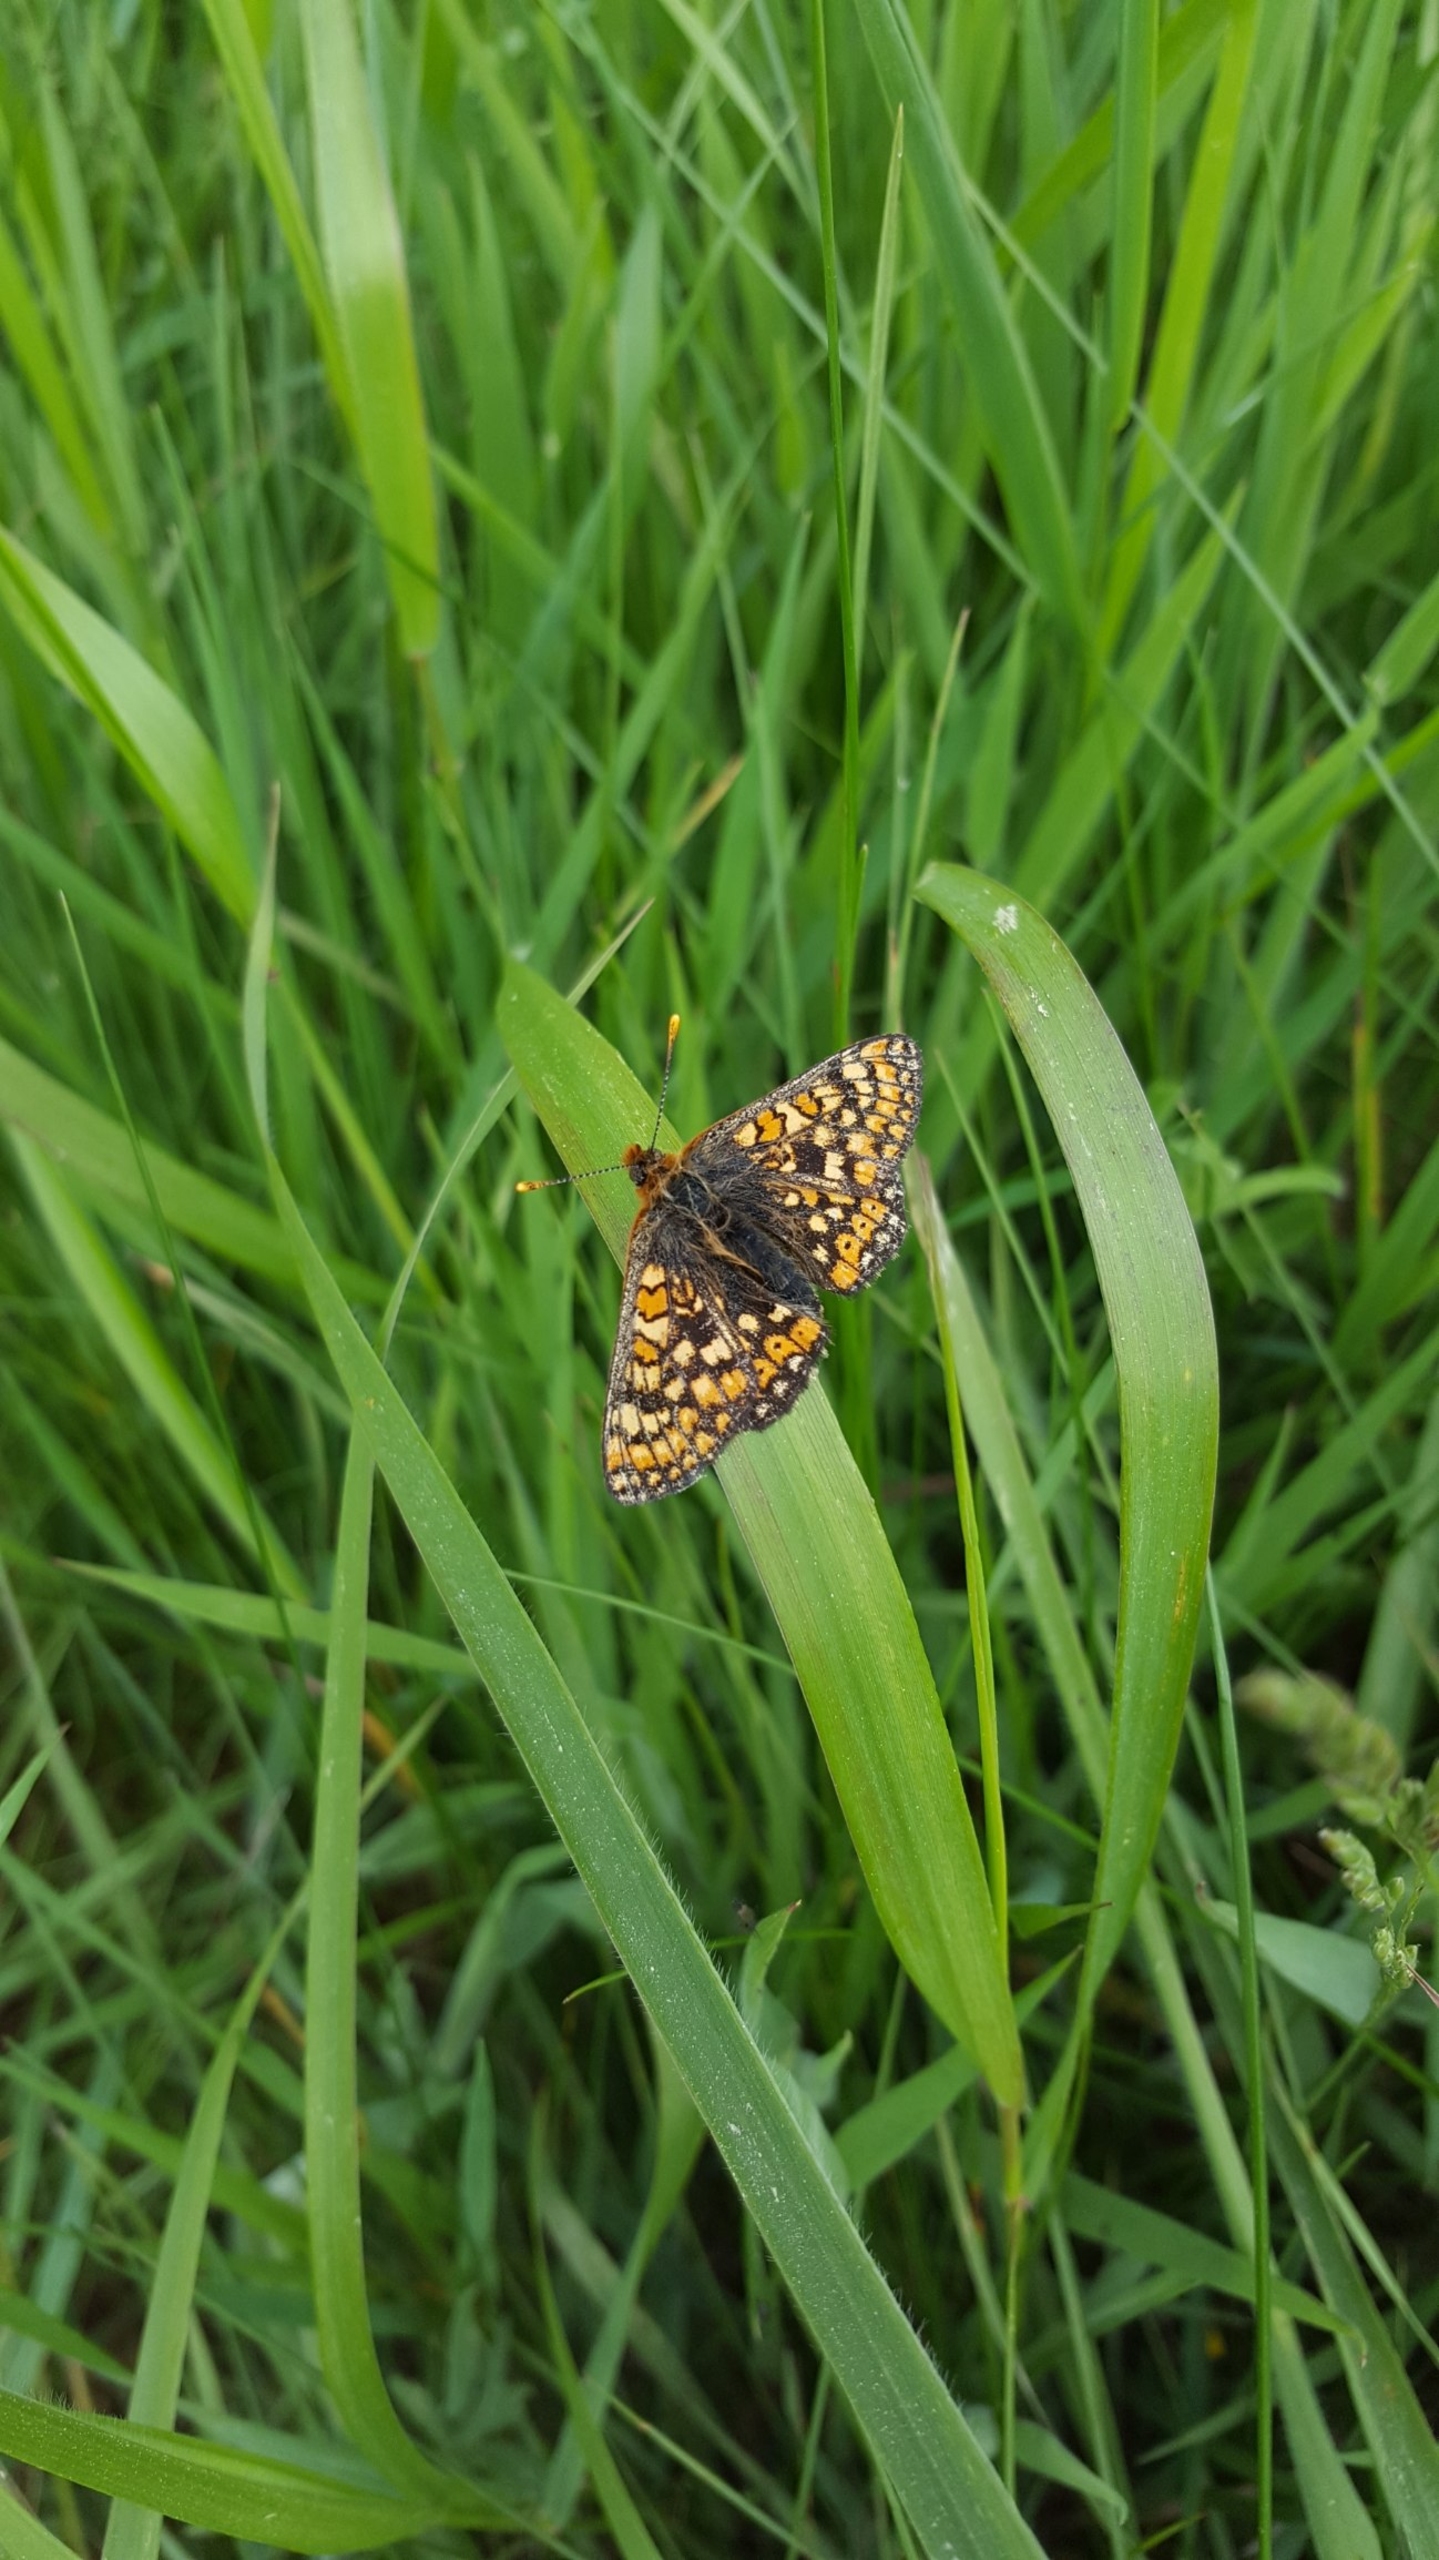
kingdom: Animalia
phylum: Arthropoda
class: Insecta
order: Lepidoptera
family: Nymphalidae
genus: Euphydryas
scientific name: Euphydryas aurinia
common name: Hedepletvinge
